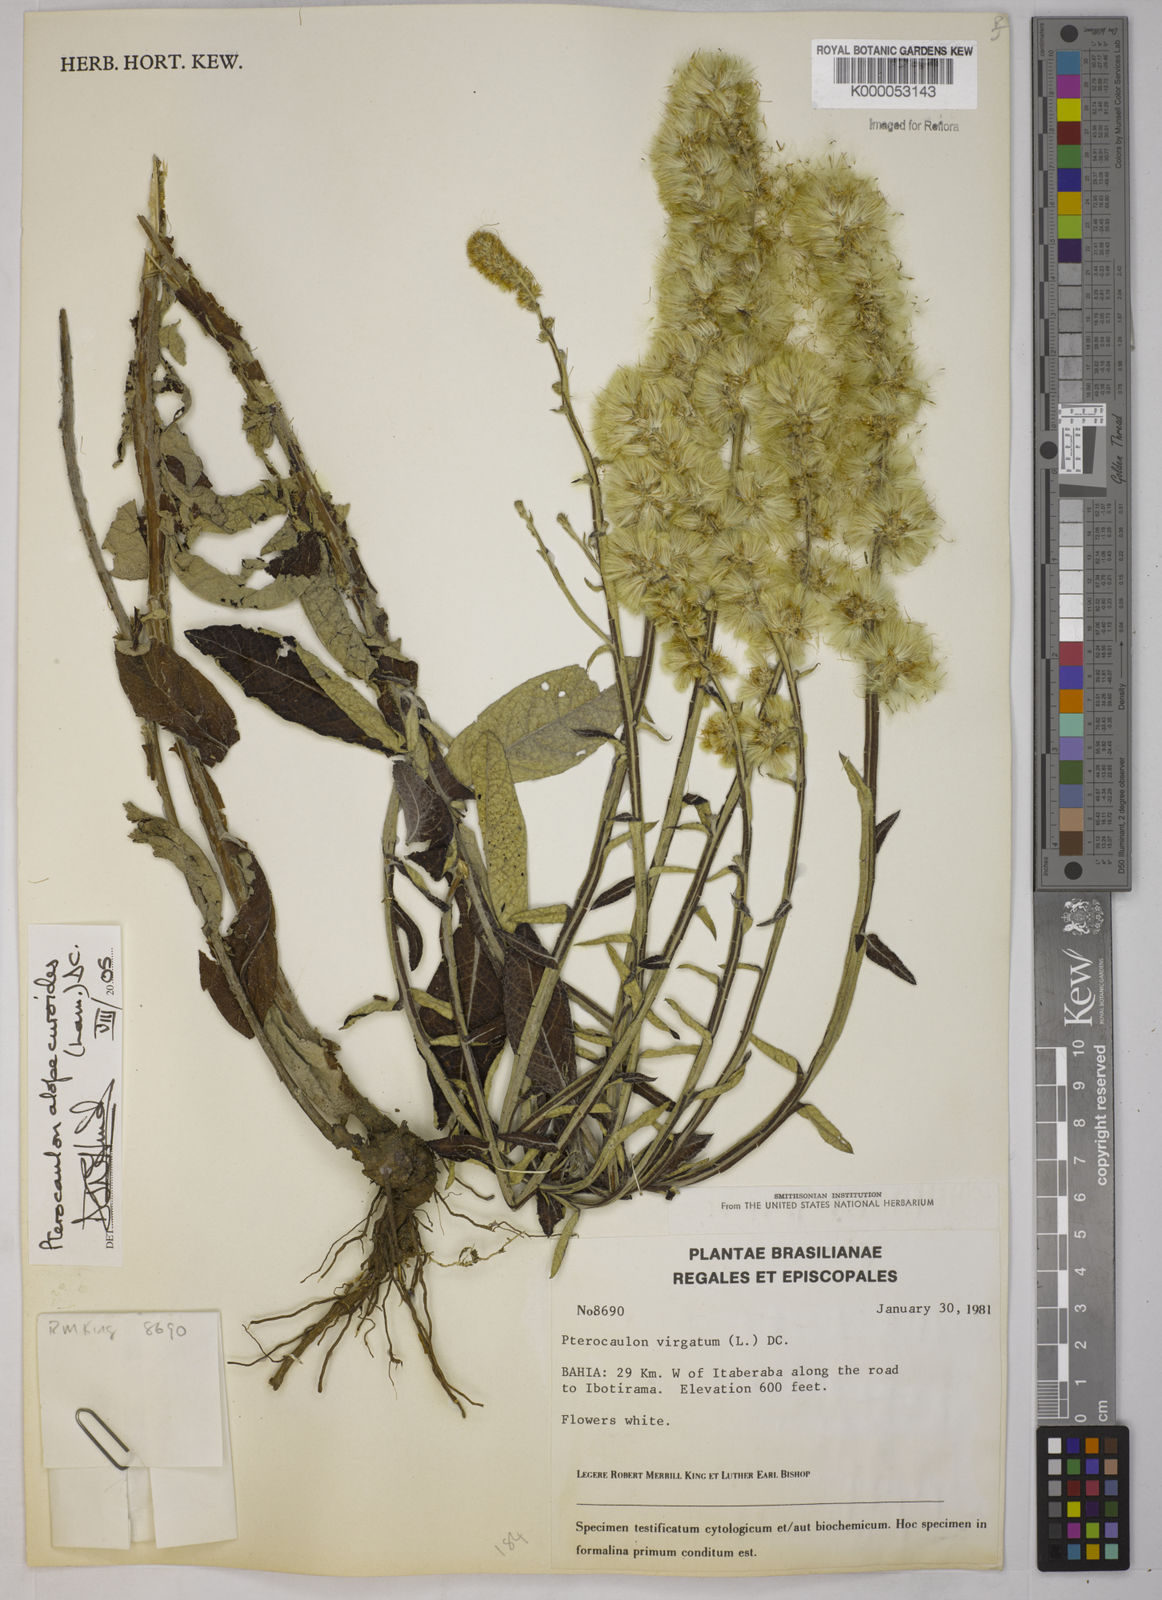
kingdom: Plantae
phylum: Tracheophyta
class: Magnoliopsida
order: Asterales
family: Asteraceae
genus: Pterocaulon
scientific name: Pterocaulon alopecuroides
